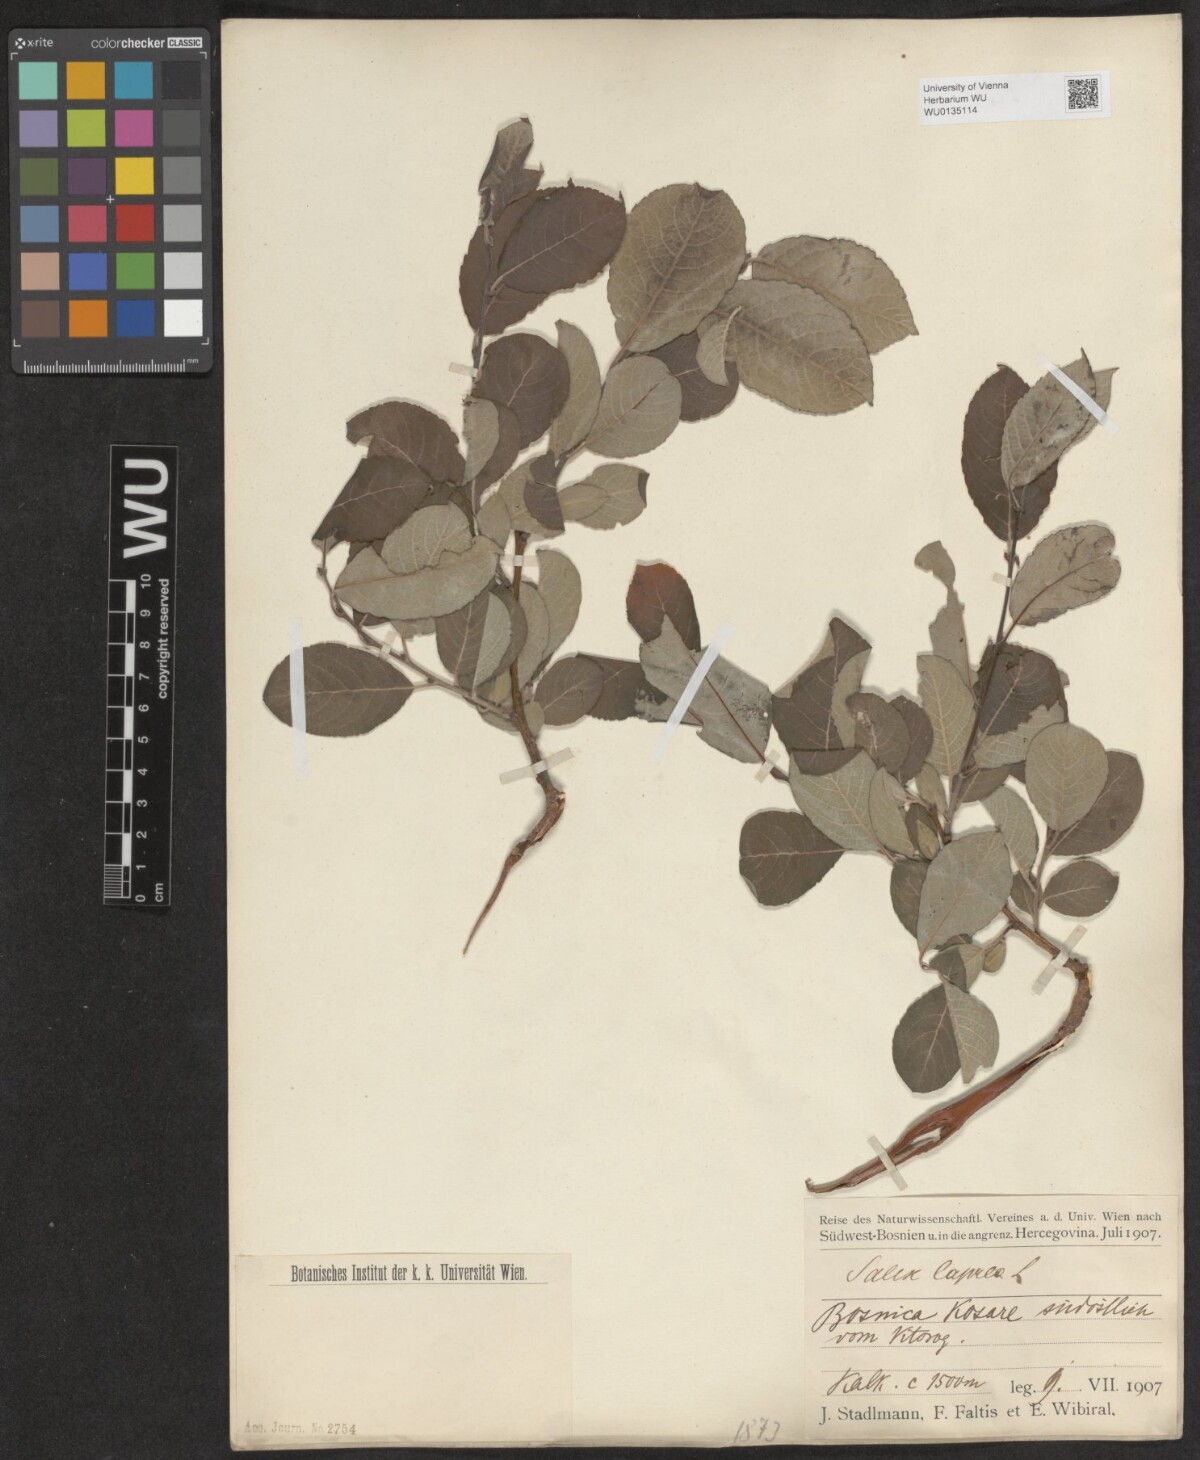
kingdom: Plantae
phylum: Tracheophyta
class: Magnoliopsida
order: Malpighiales
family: Salicaceae
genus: Salix
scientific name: Salix caprea
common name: Goat willow
